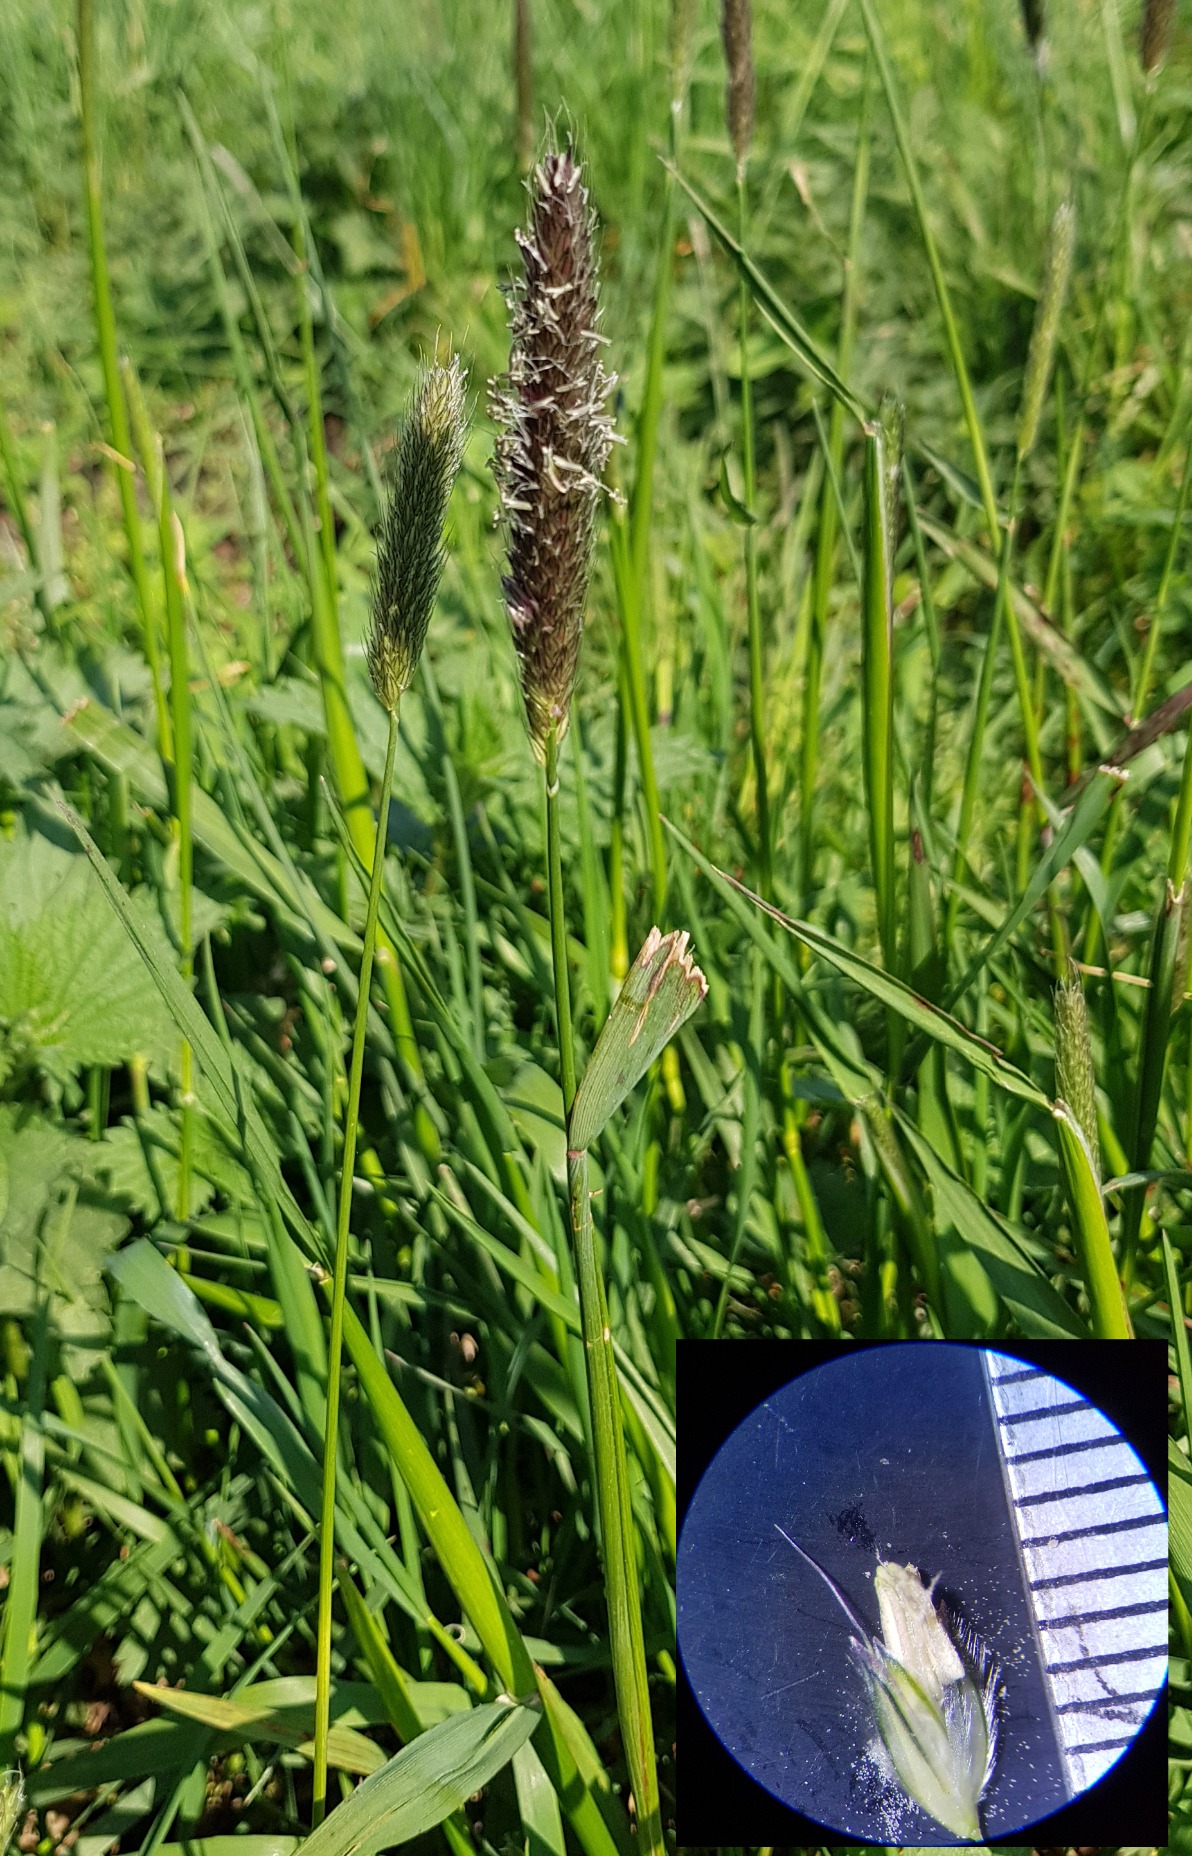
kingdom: Plantae
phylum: Tracheophyta
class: Liliopsida
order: Poales
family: Poaceae
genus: Alopecurus
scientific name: Alopecurus pratensis
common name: Eng-rævehale
